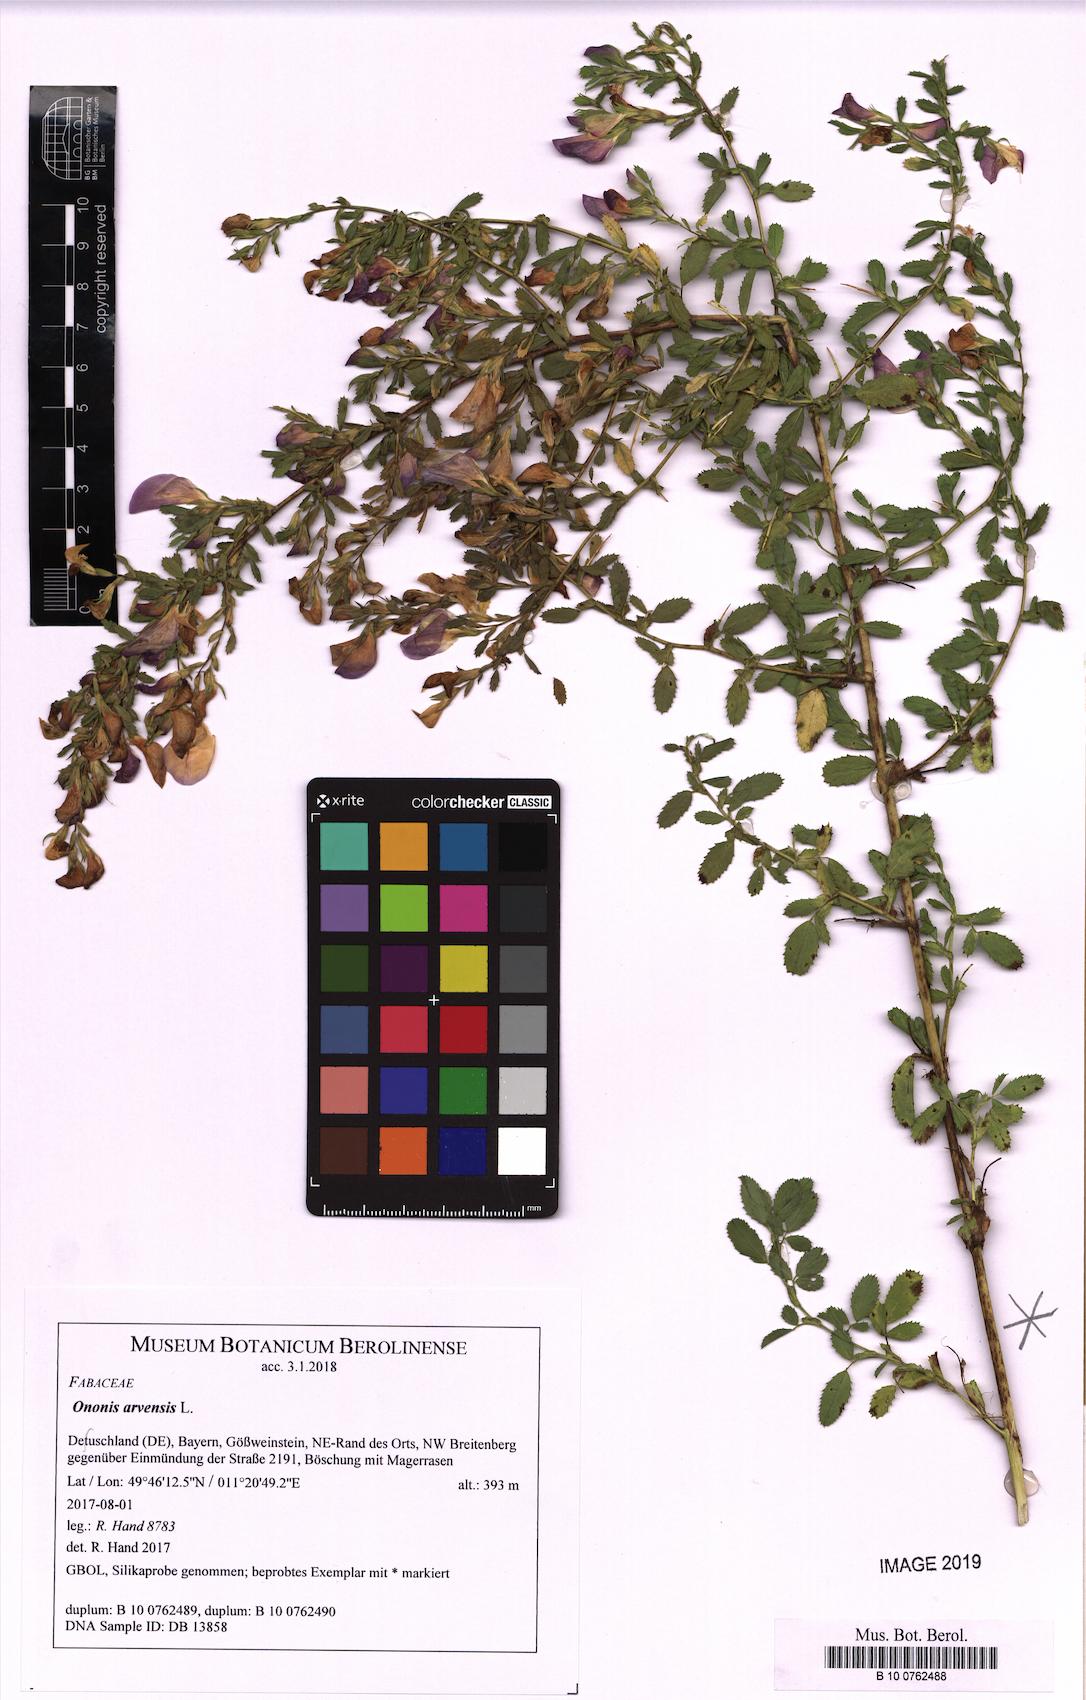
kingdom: Plantae
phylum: Tracheophyta
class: Magnoliopsida
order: Fabales
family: Fabaceae
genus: Ononis
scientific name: Ononis arvensis
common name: Field restharrow
